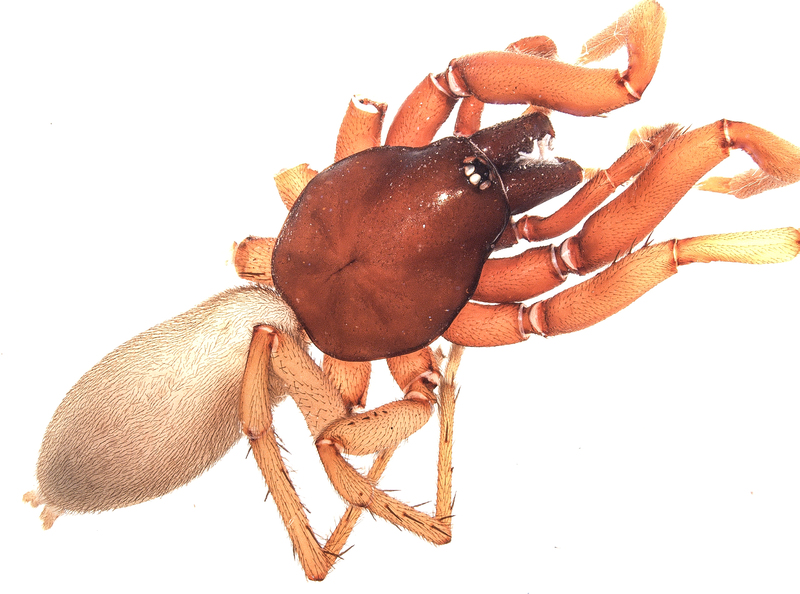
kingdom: Animalia
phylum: Arthropoda
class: Arachnida
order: Araneae
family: Dysderidae
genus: Harpactea
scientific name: Harpactea rubicunda
